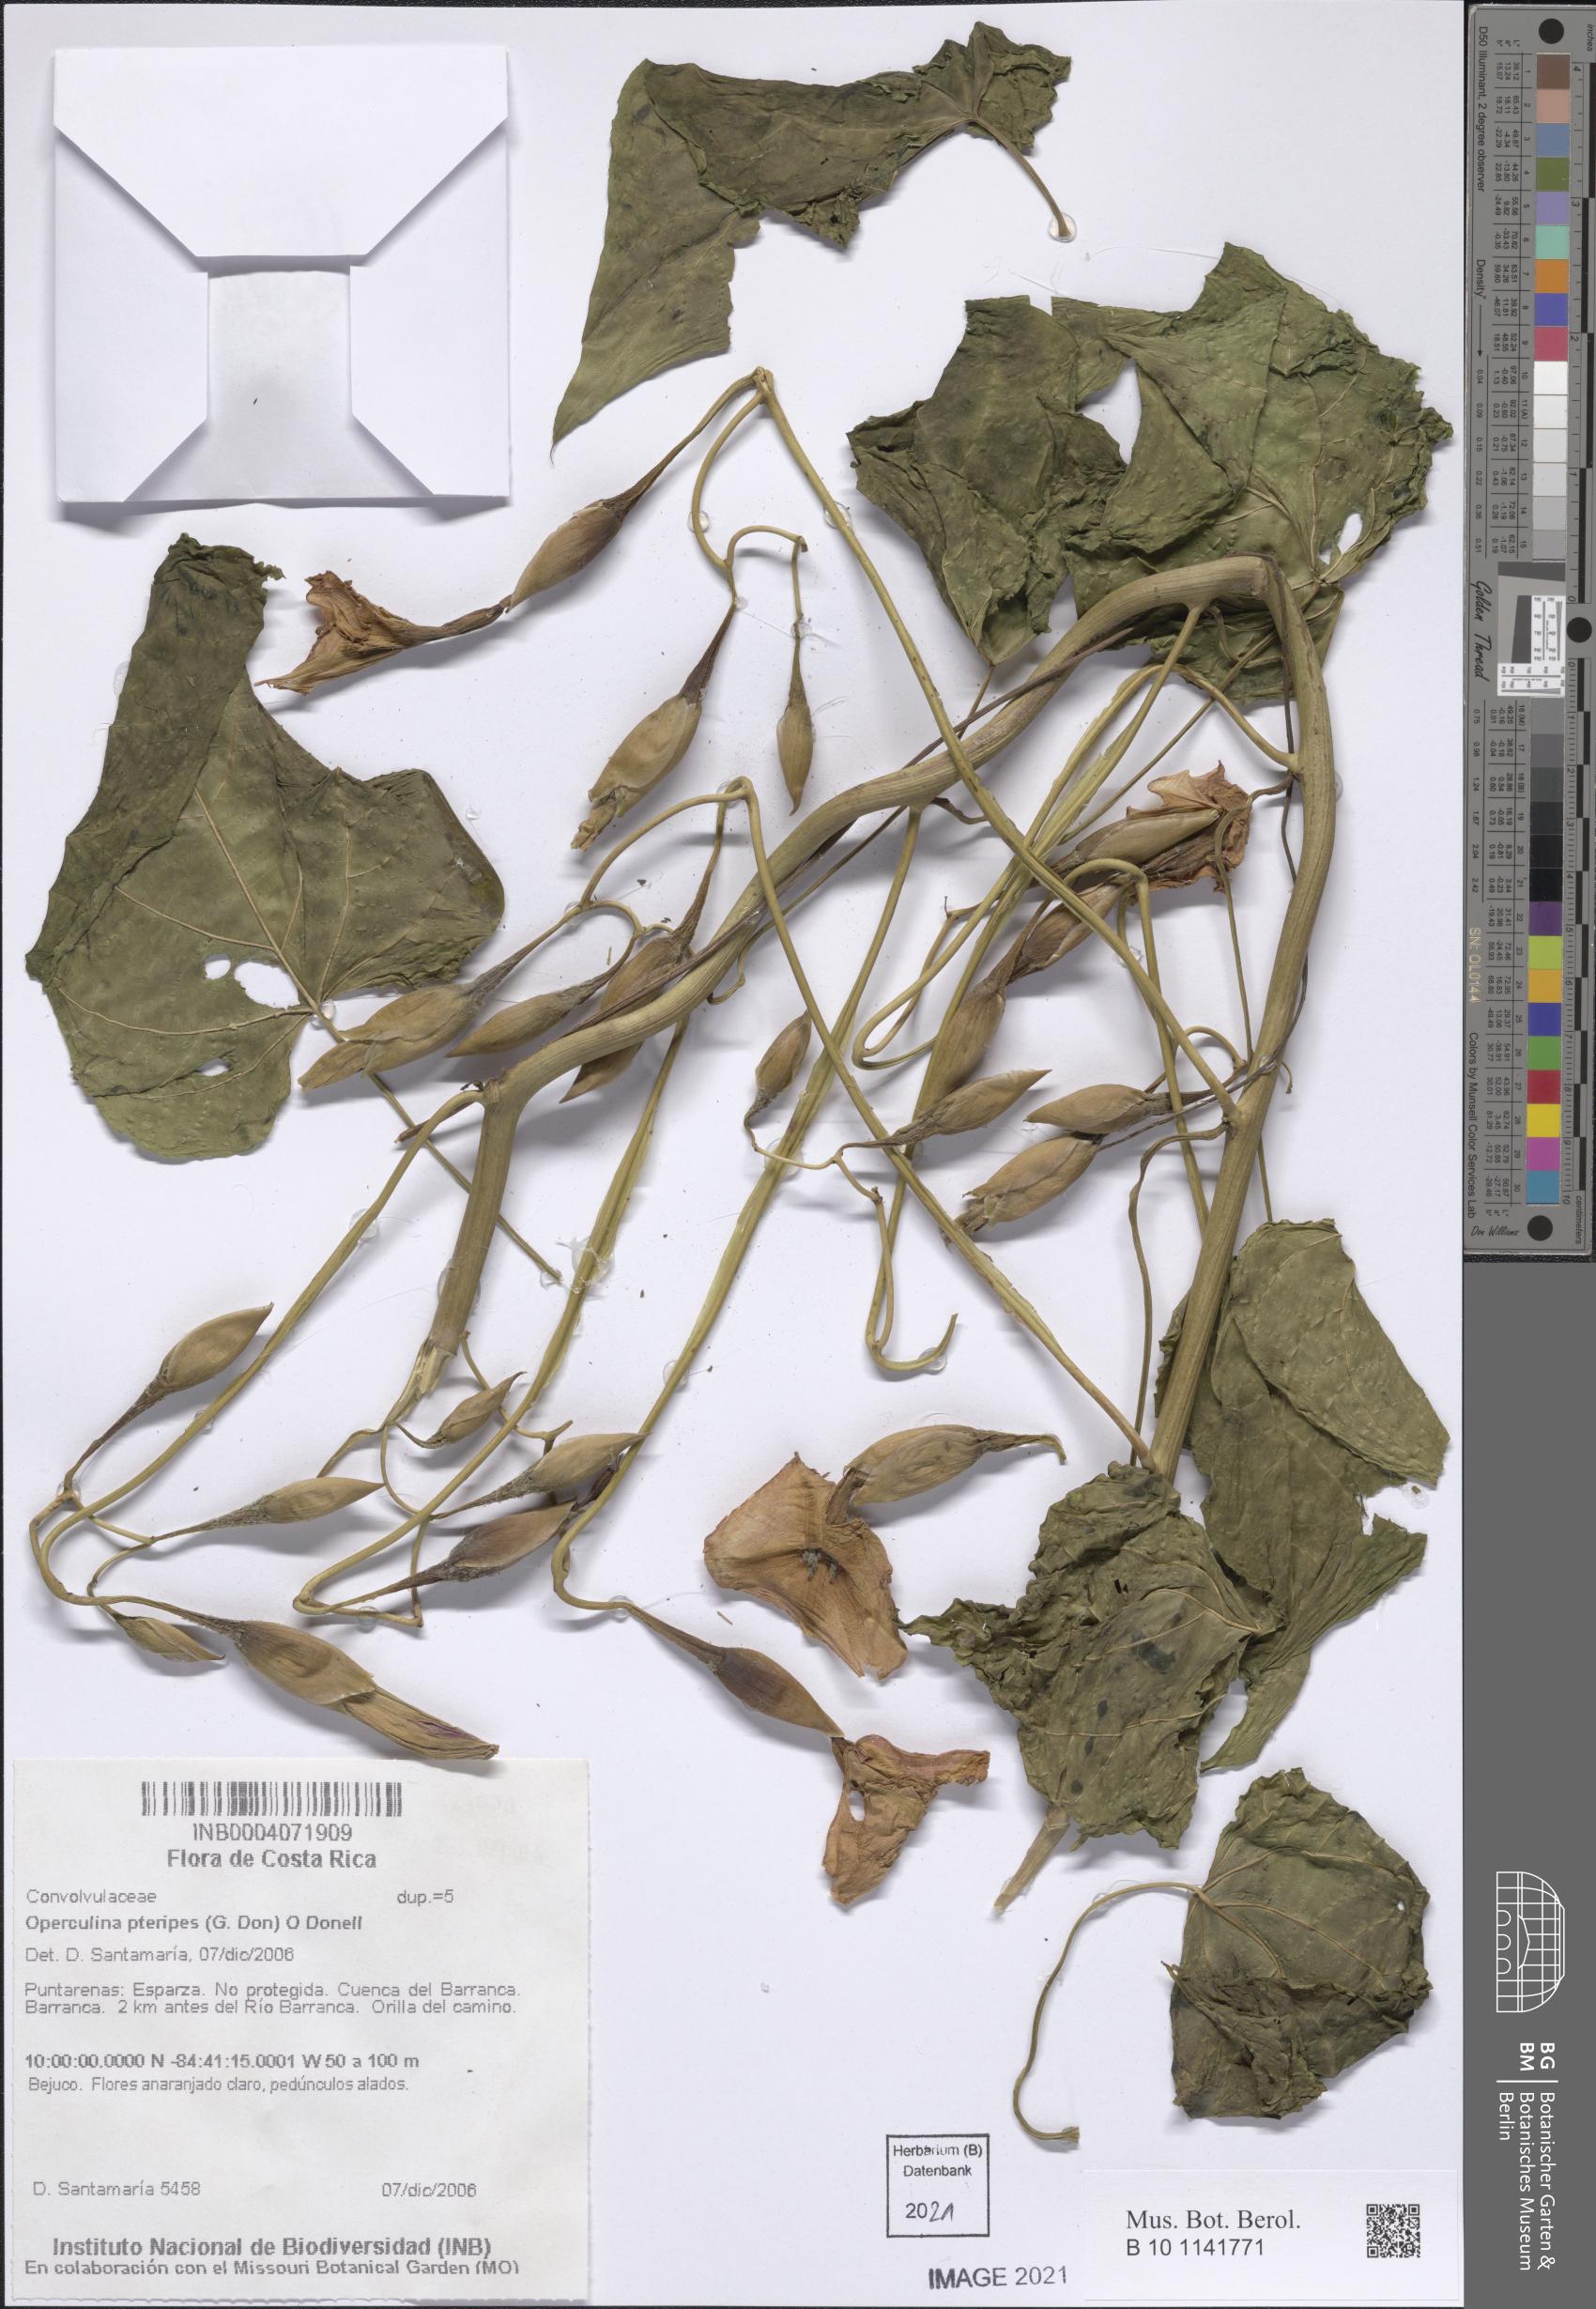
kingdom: Plantae
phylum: Tracheophyta
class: Magnoliopsida
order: Solanales
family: Convolvulaceae
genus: Operculina
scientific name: Operculina pteripes
